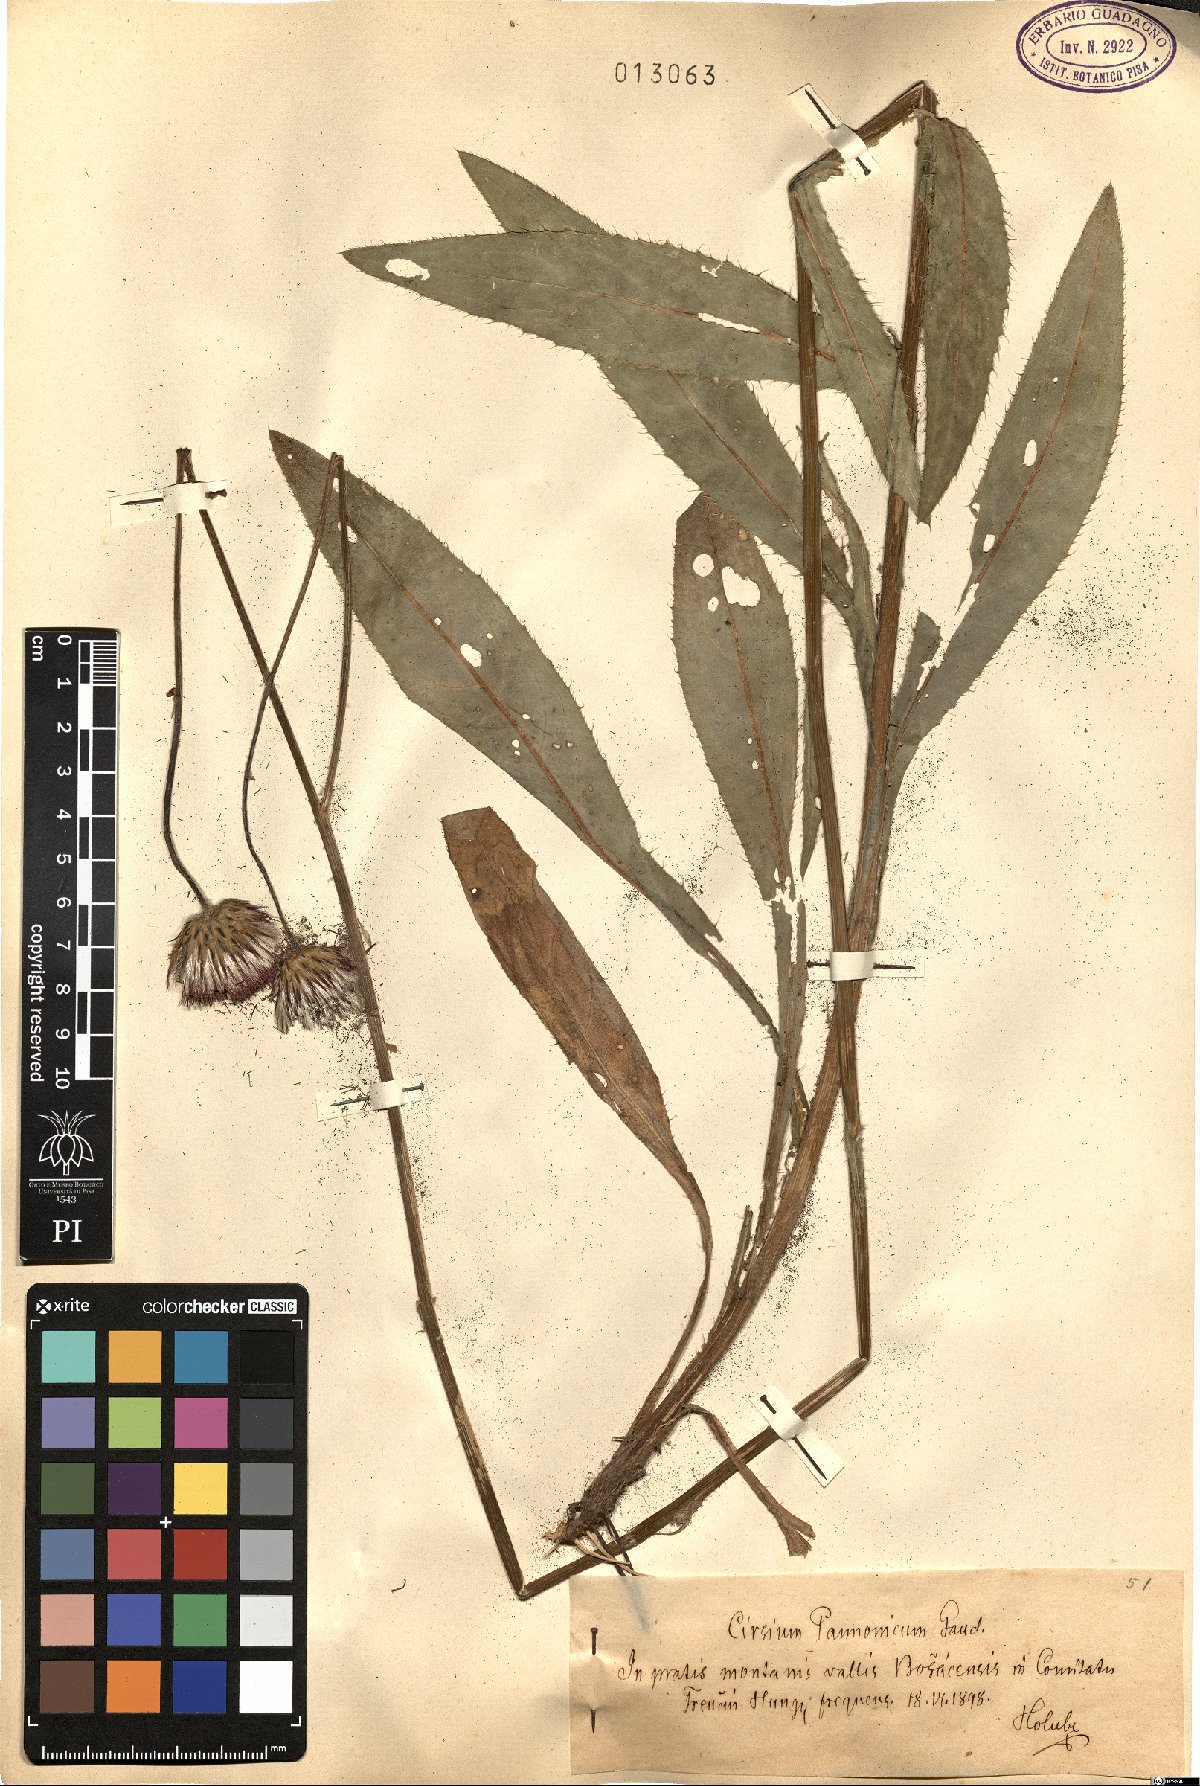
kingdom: Plantae
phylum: Tracheophyta
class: Magnoliopsida
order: Asterales
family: Asteraceae
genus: Cirsium
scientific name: Cirsium pannonicum
